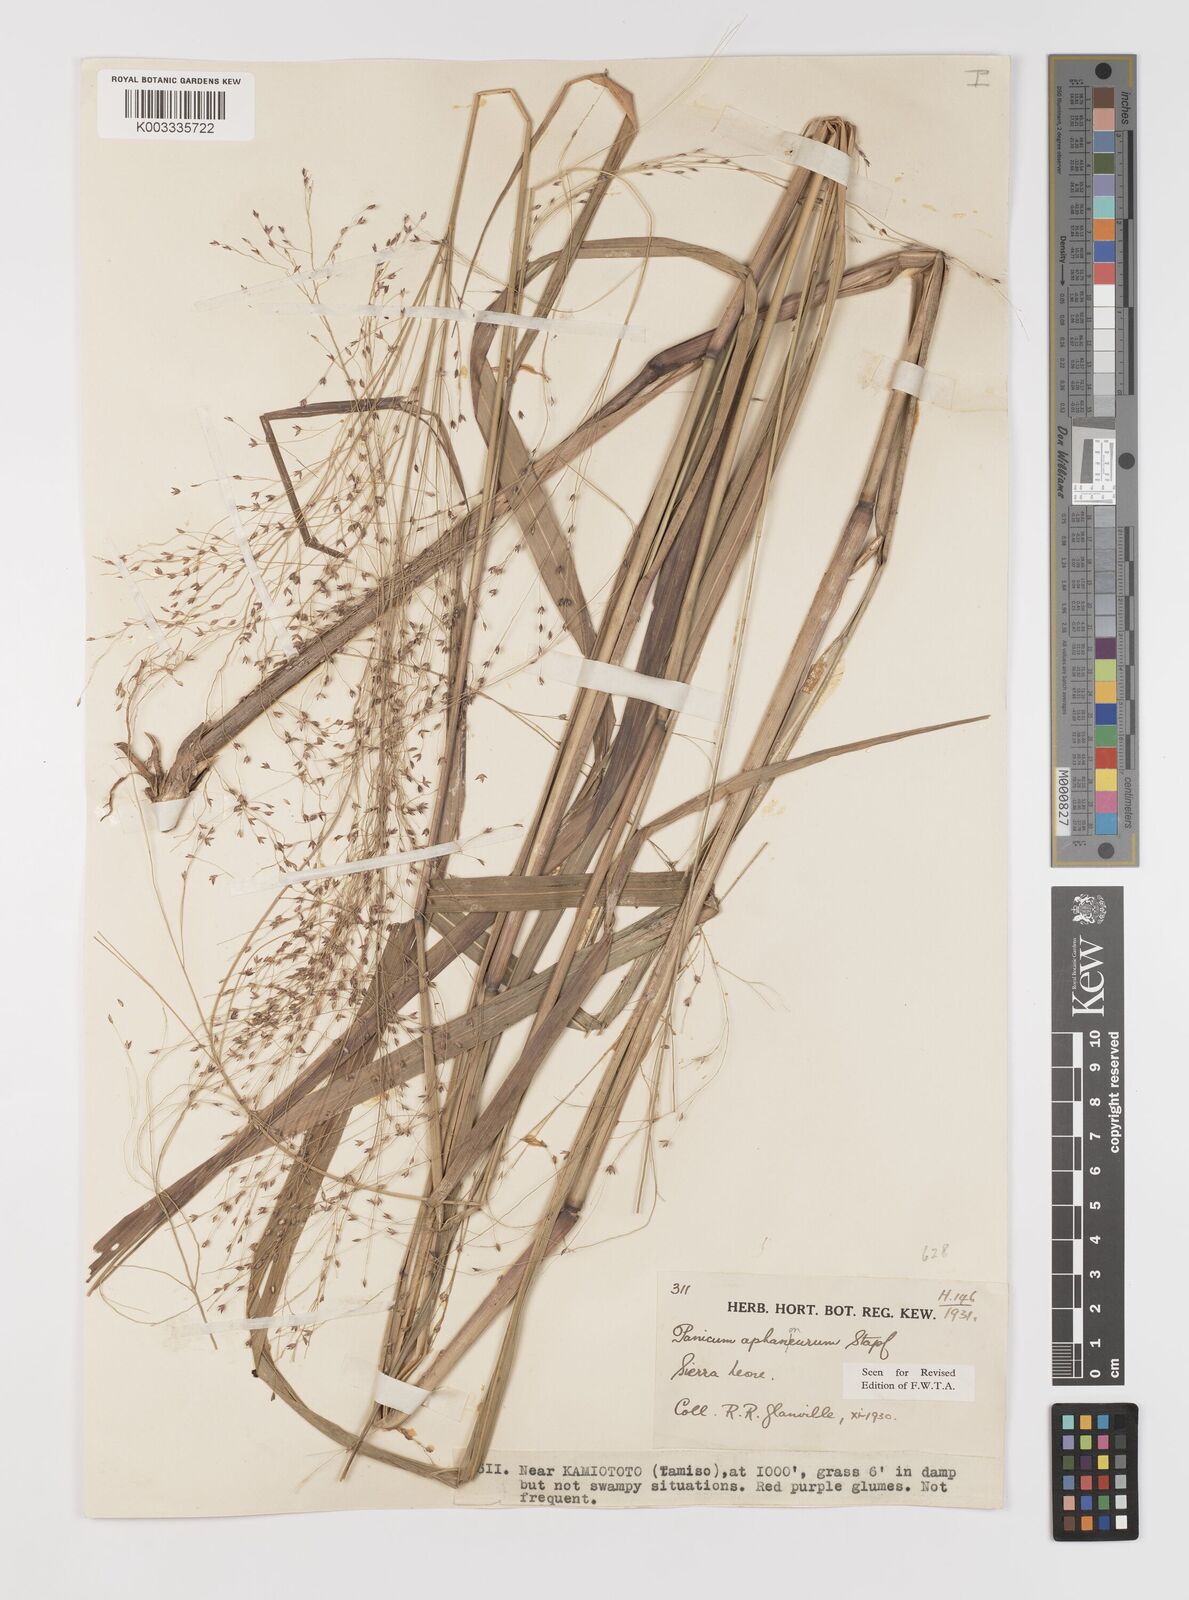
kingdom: Plantae
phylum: Tracheophyta
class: Liliopsida
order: Poales
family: Poaceae
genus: Panicum
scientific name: Panicum fluviicola
